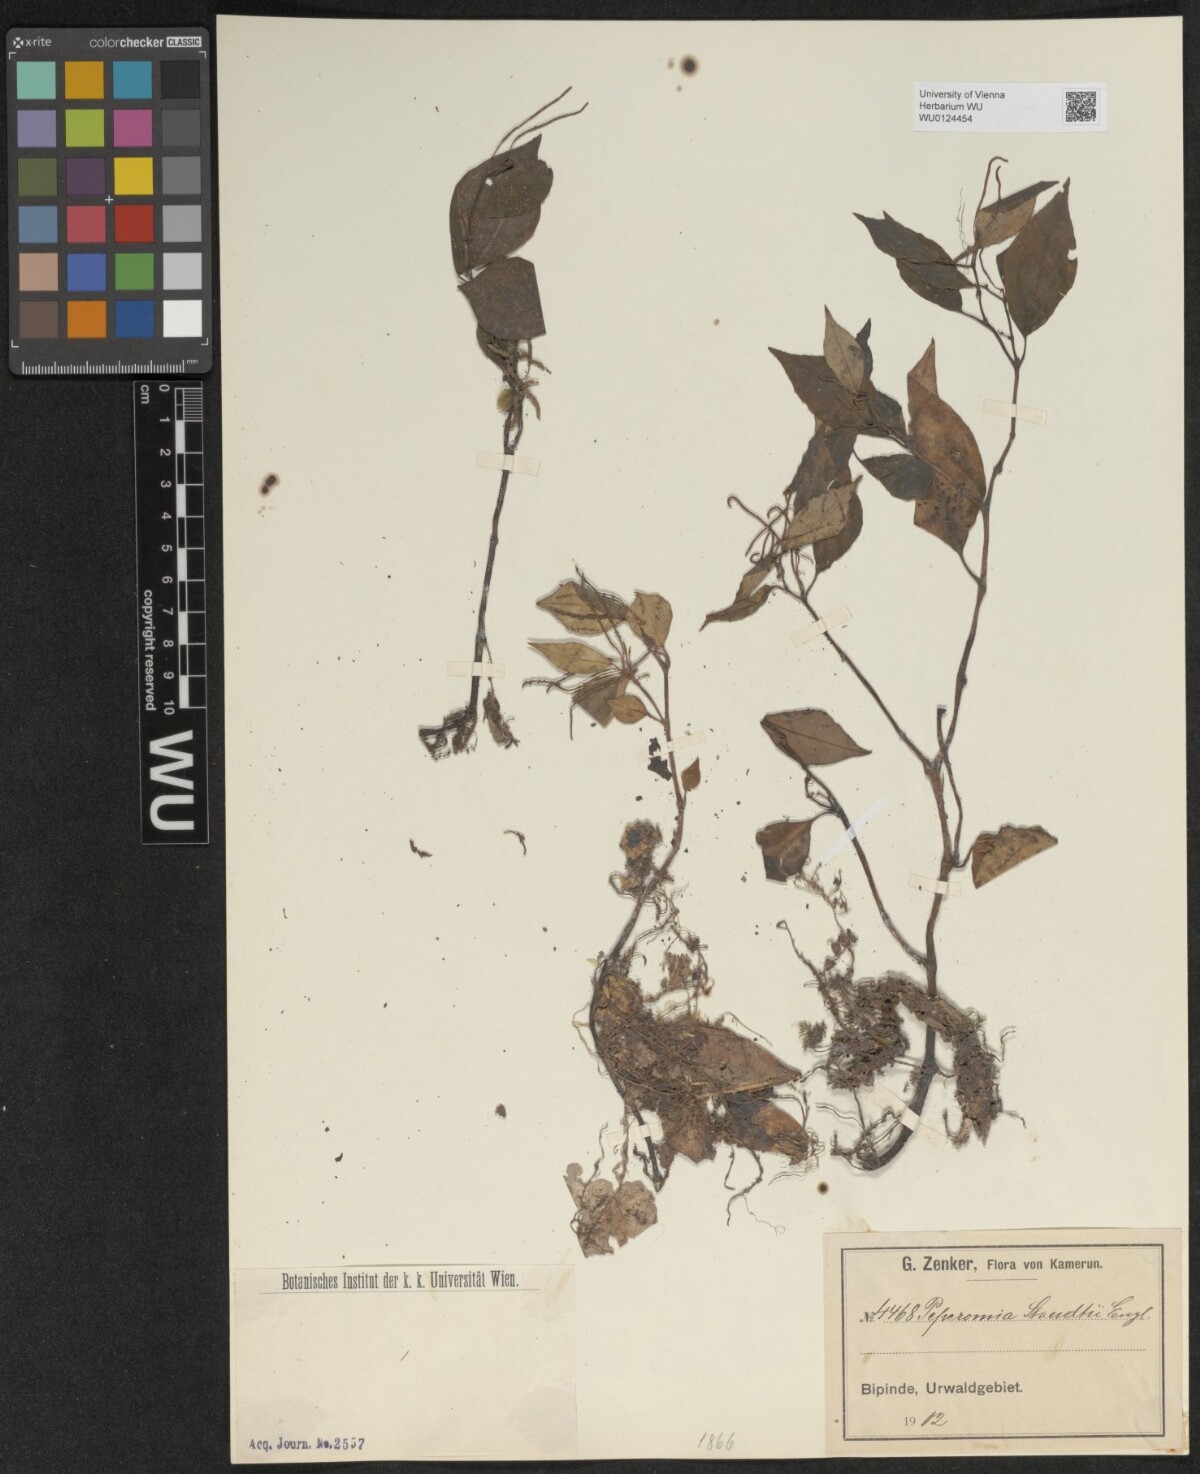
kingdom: Plantae
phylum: Tracheophyta
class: Magnoliopsida
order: Piperales
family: Piperaceae
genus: Peperomia
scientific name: Peperomia fernandopoiana
